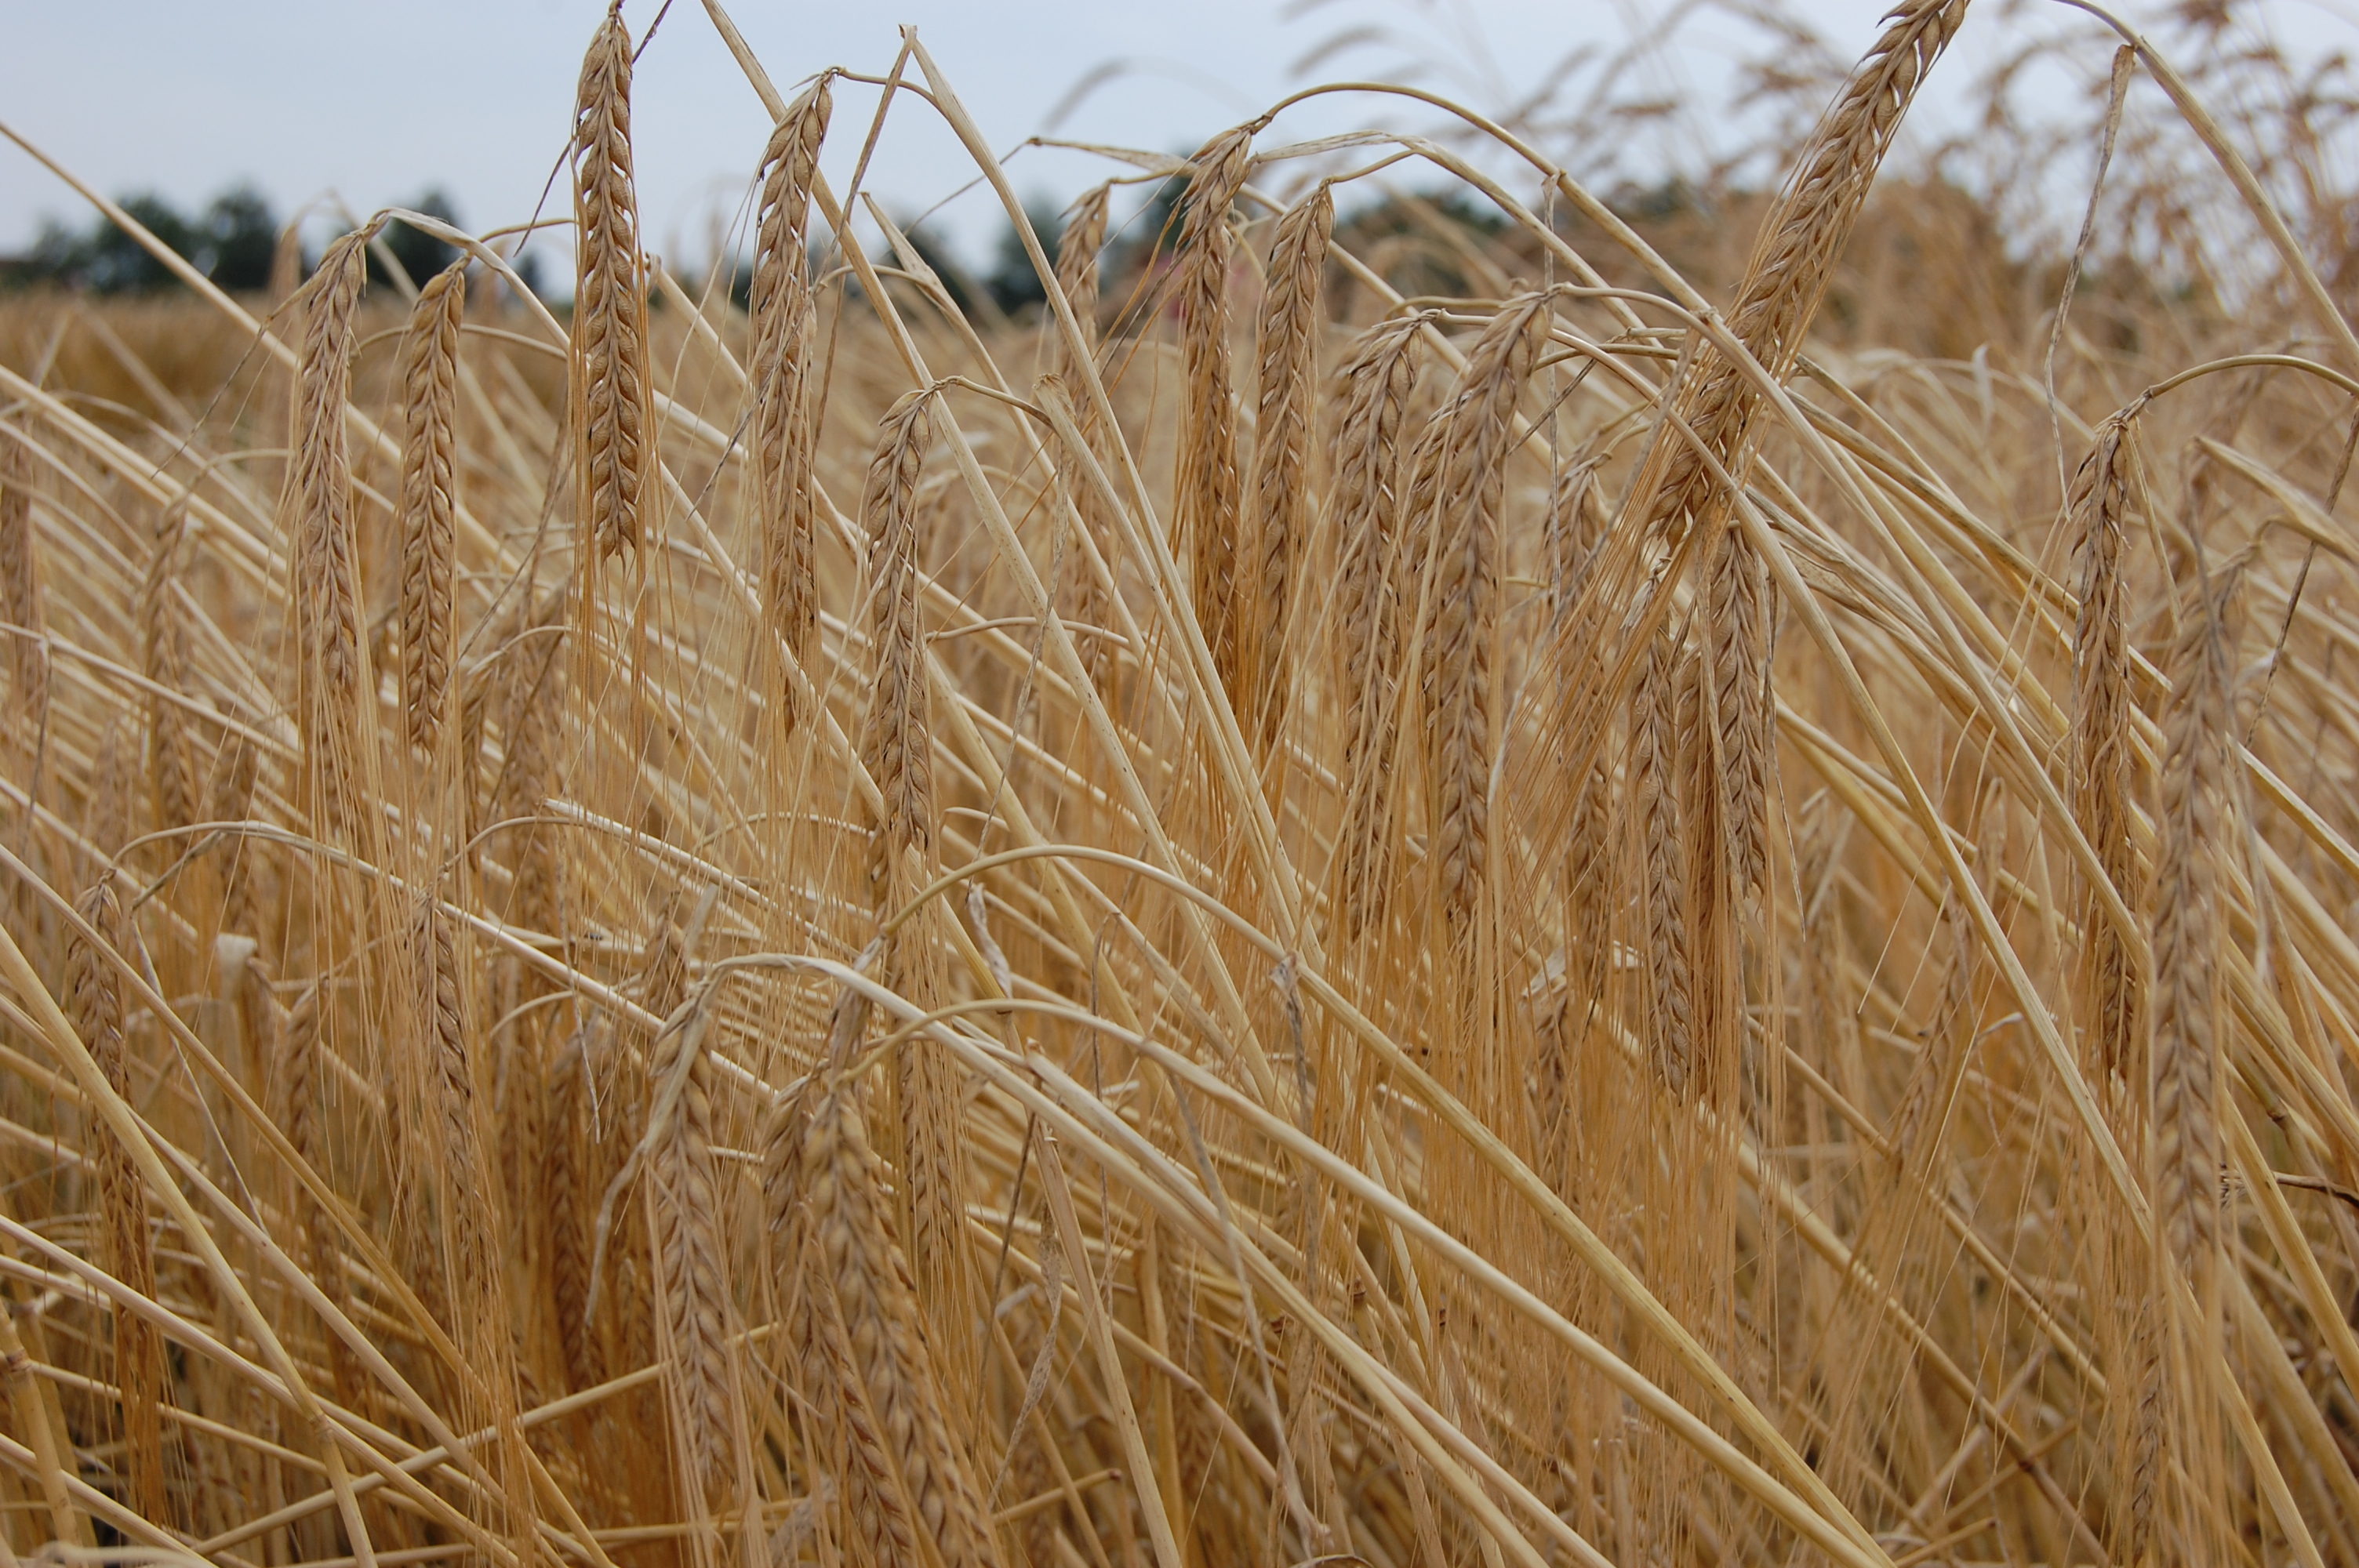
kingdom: Plantae
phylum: Tracheophyta
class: Liliopsida
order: Poales
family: Poaceae
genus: Hordeum
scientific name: Hordeum vulgare
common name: Common barley
